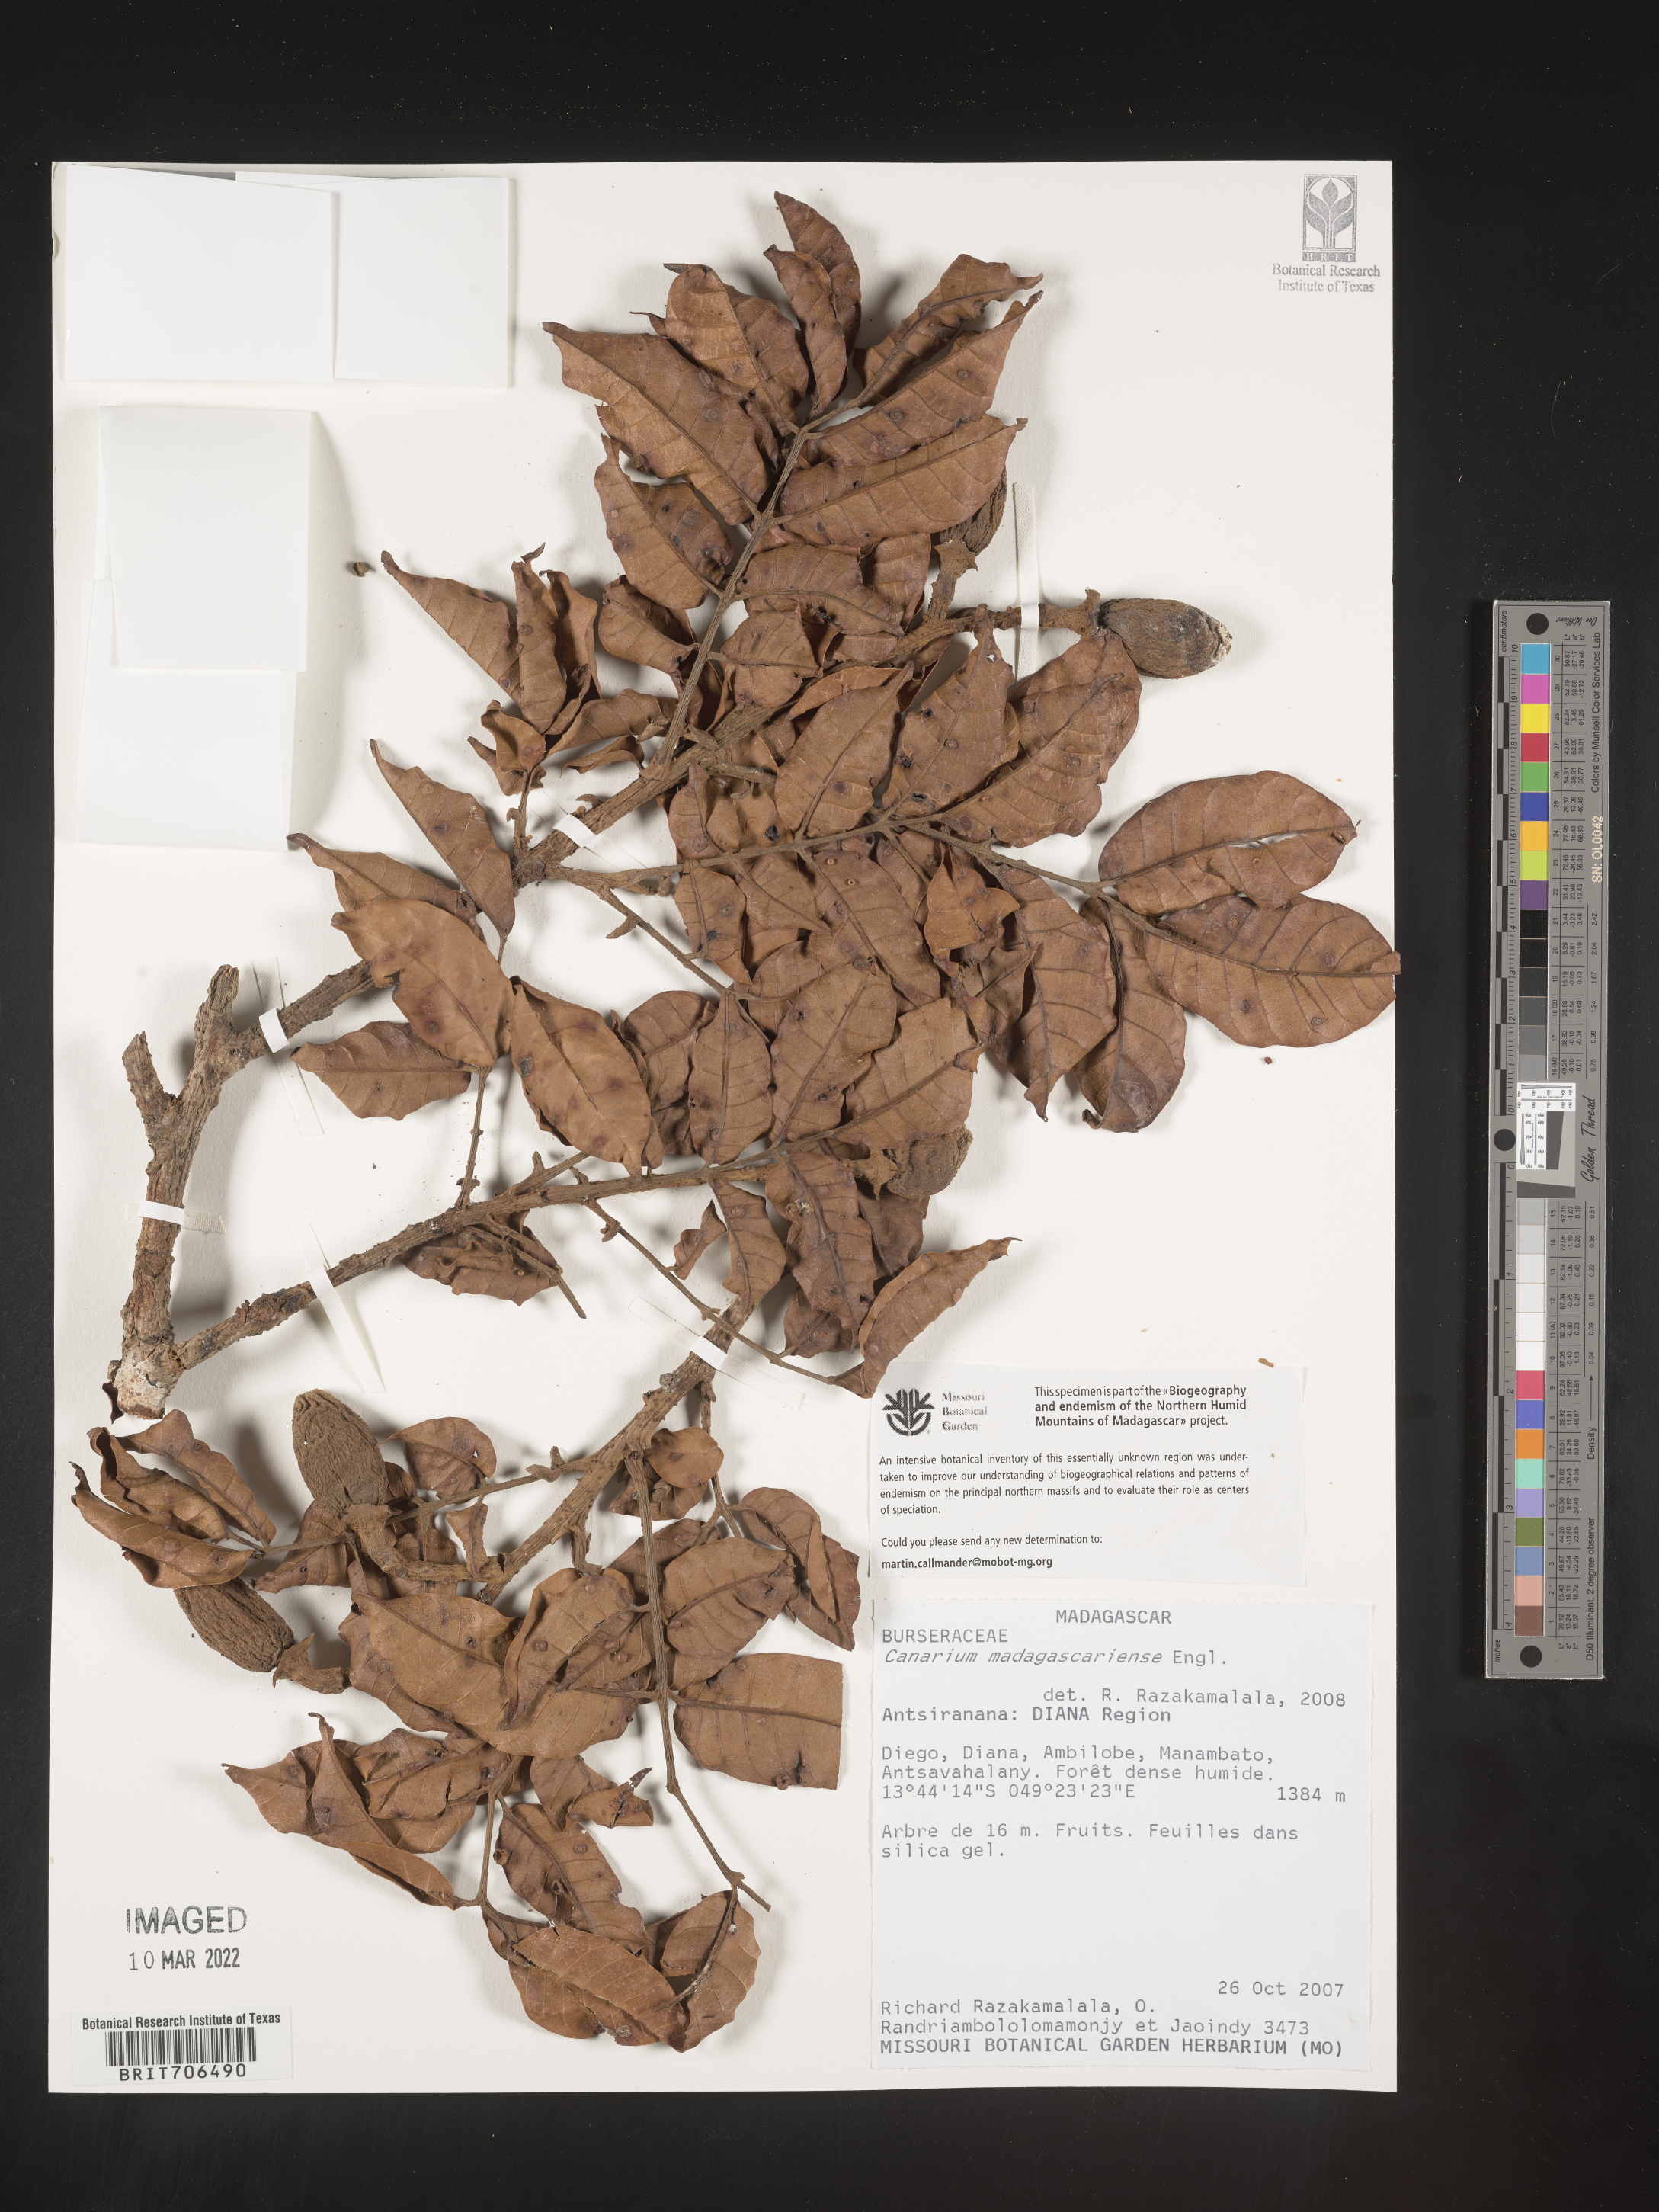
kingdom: Plantae
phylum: Tracheophyta
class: Magnoliopsida
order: Sapindales
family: Burseraceae
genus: Canarium
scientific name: Canarium
